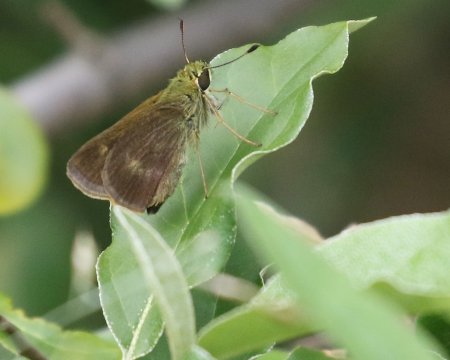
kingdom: Animalia
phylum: Arthropoda
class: Insecta
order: Lepidoptera
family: Hesperiidae
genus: Polites
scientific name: Polites egeremet
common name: Northern Broken-Dash
